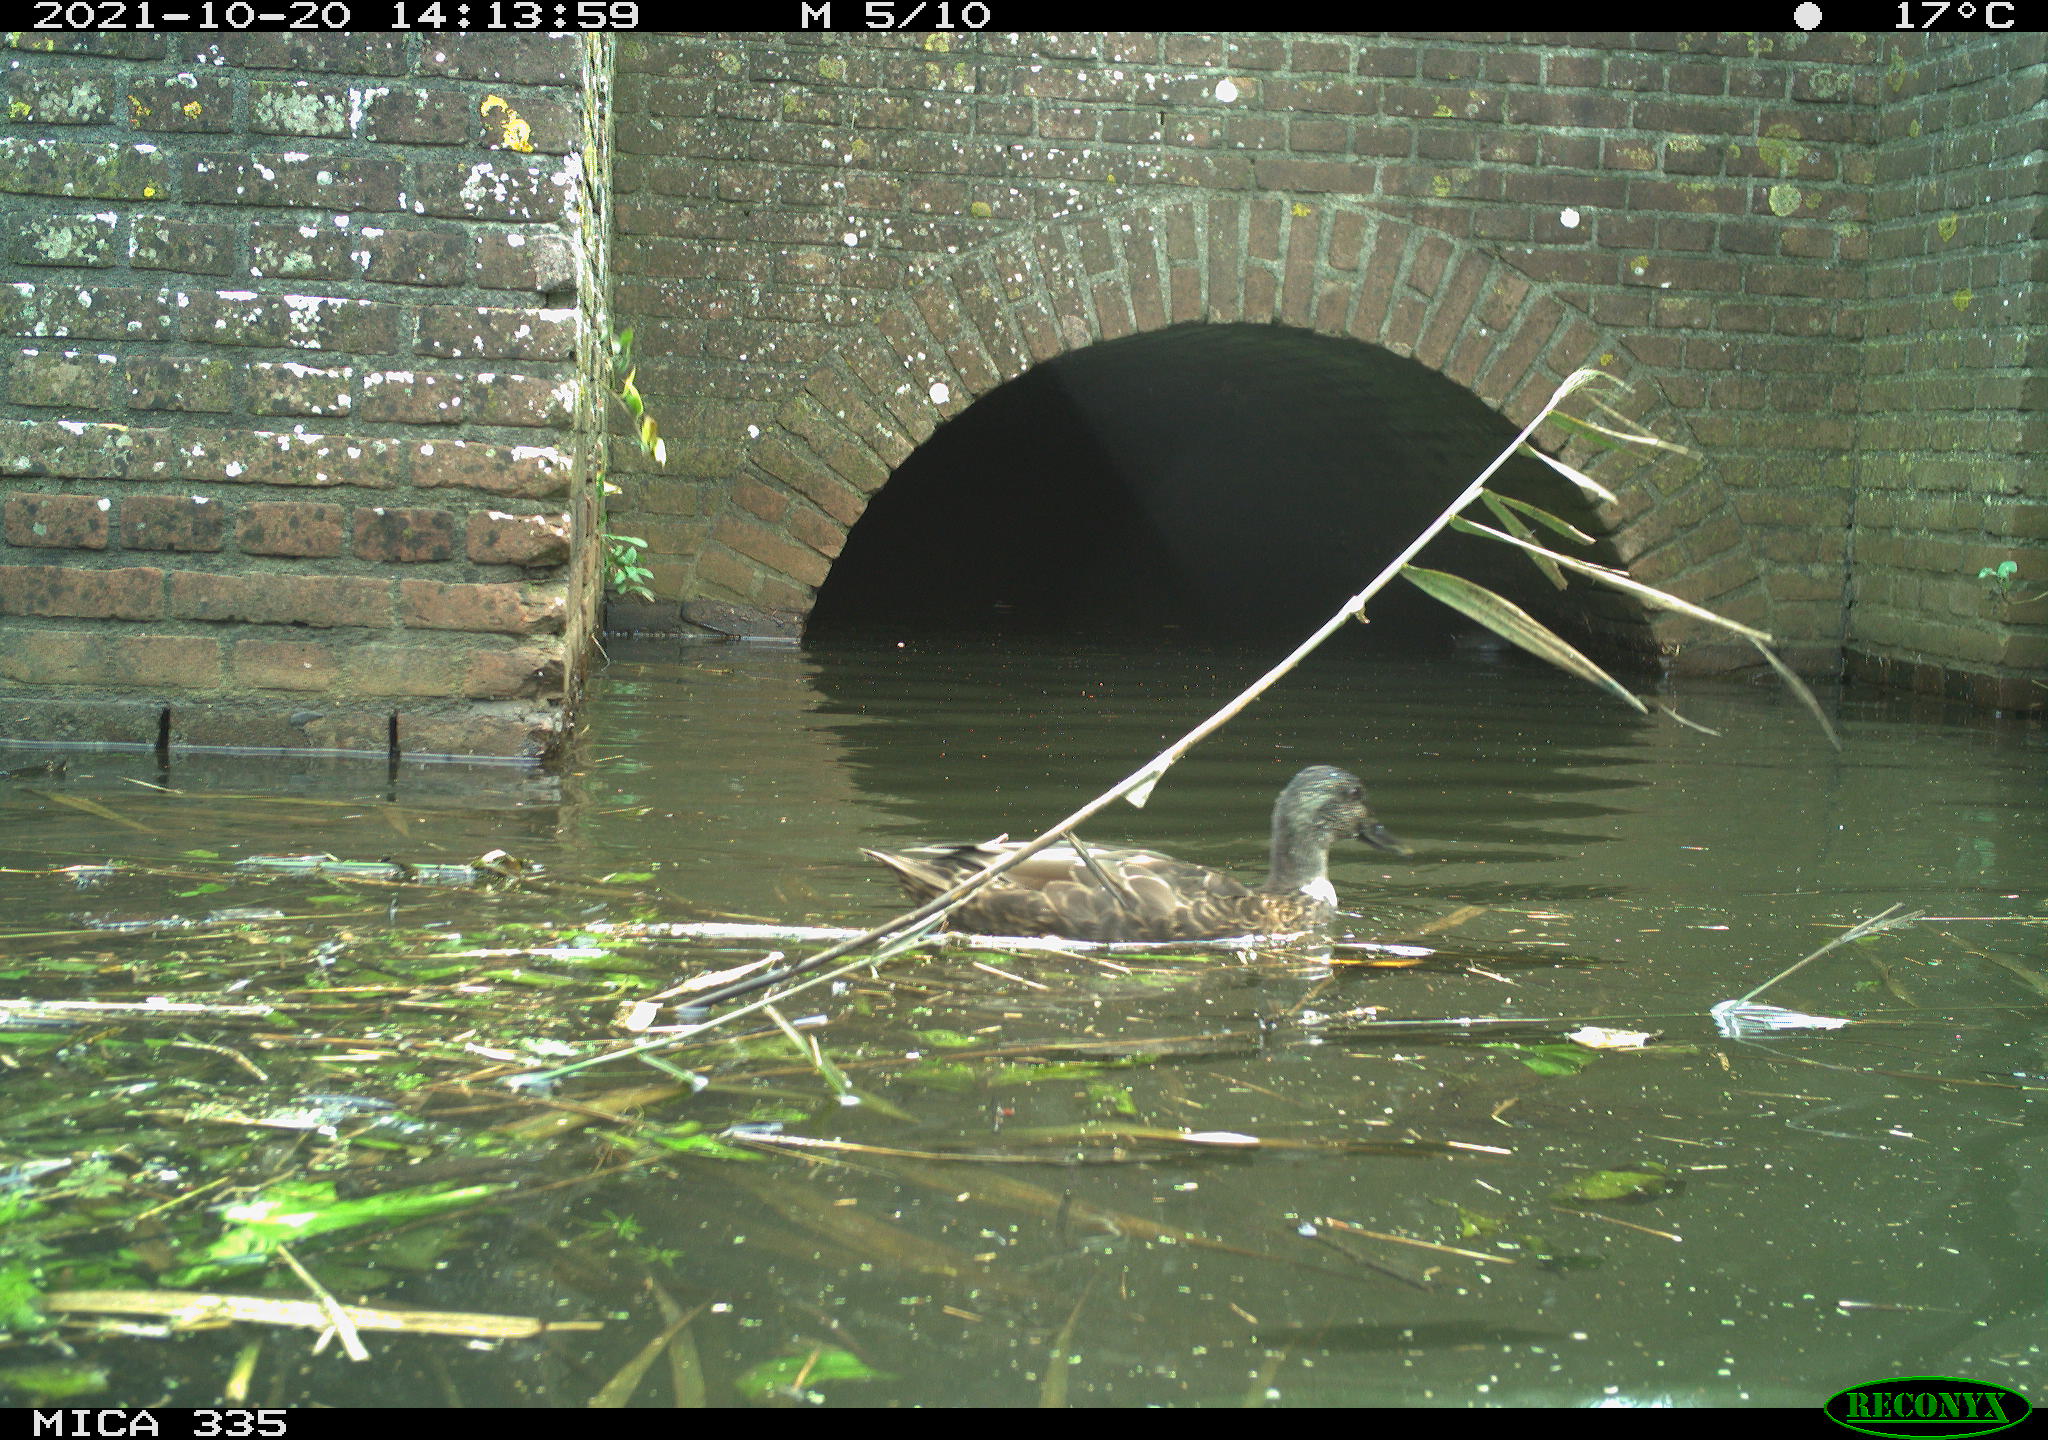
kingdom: Animalia
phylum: Chordata
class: Aves
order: Anseriformes
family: Anatidae
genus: Anas
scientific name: Anas platyrhynchos
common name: Mallard
